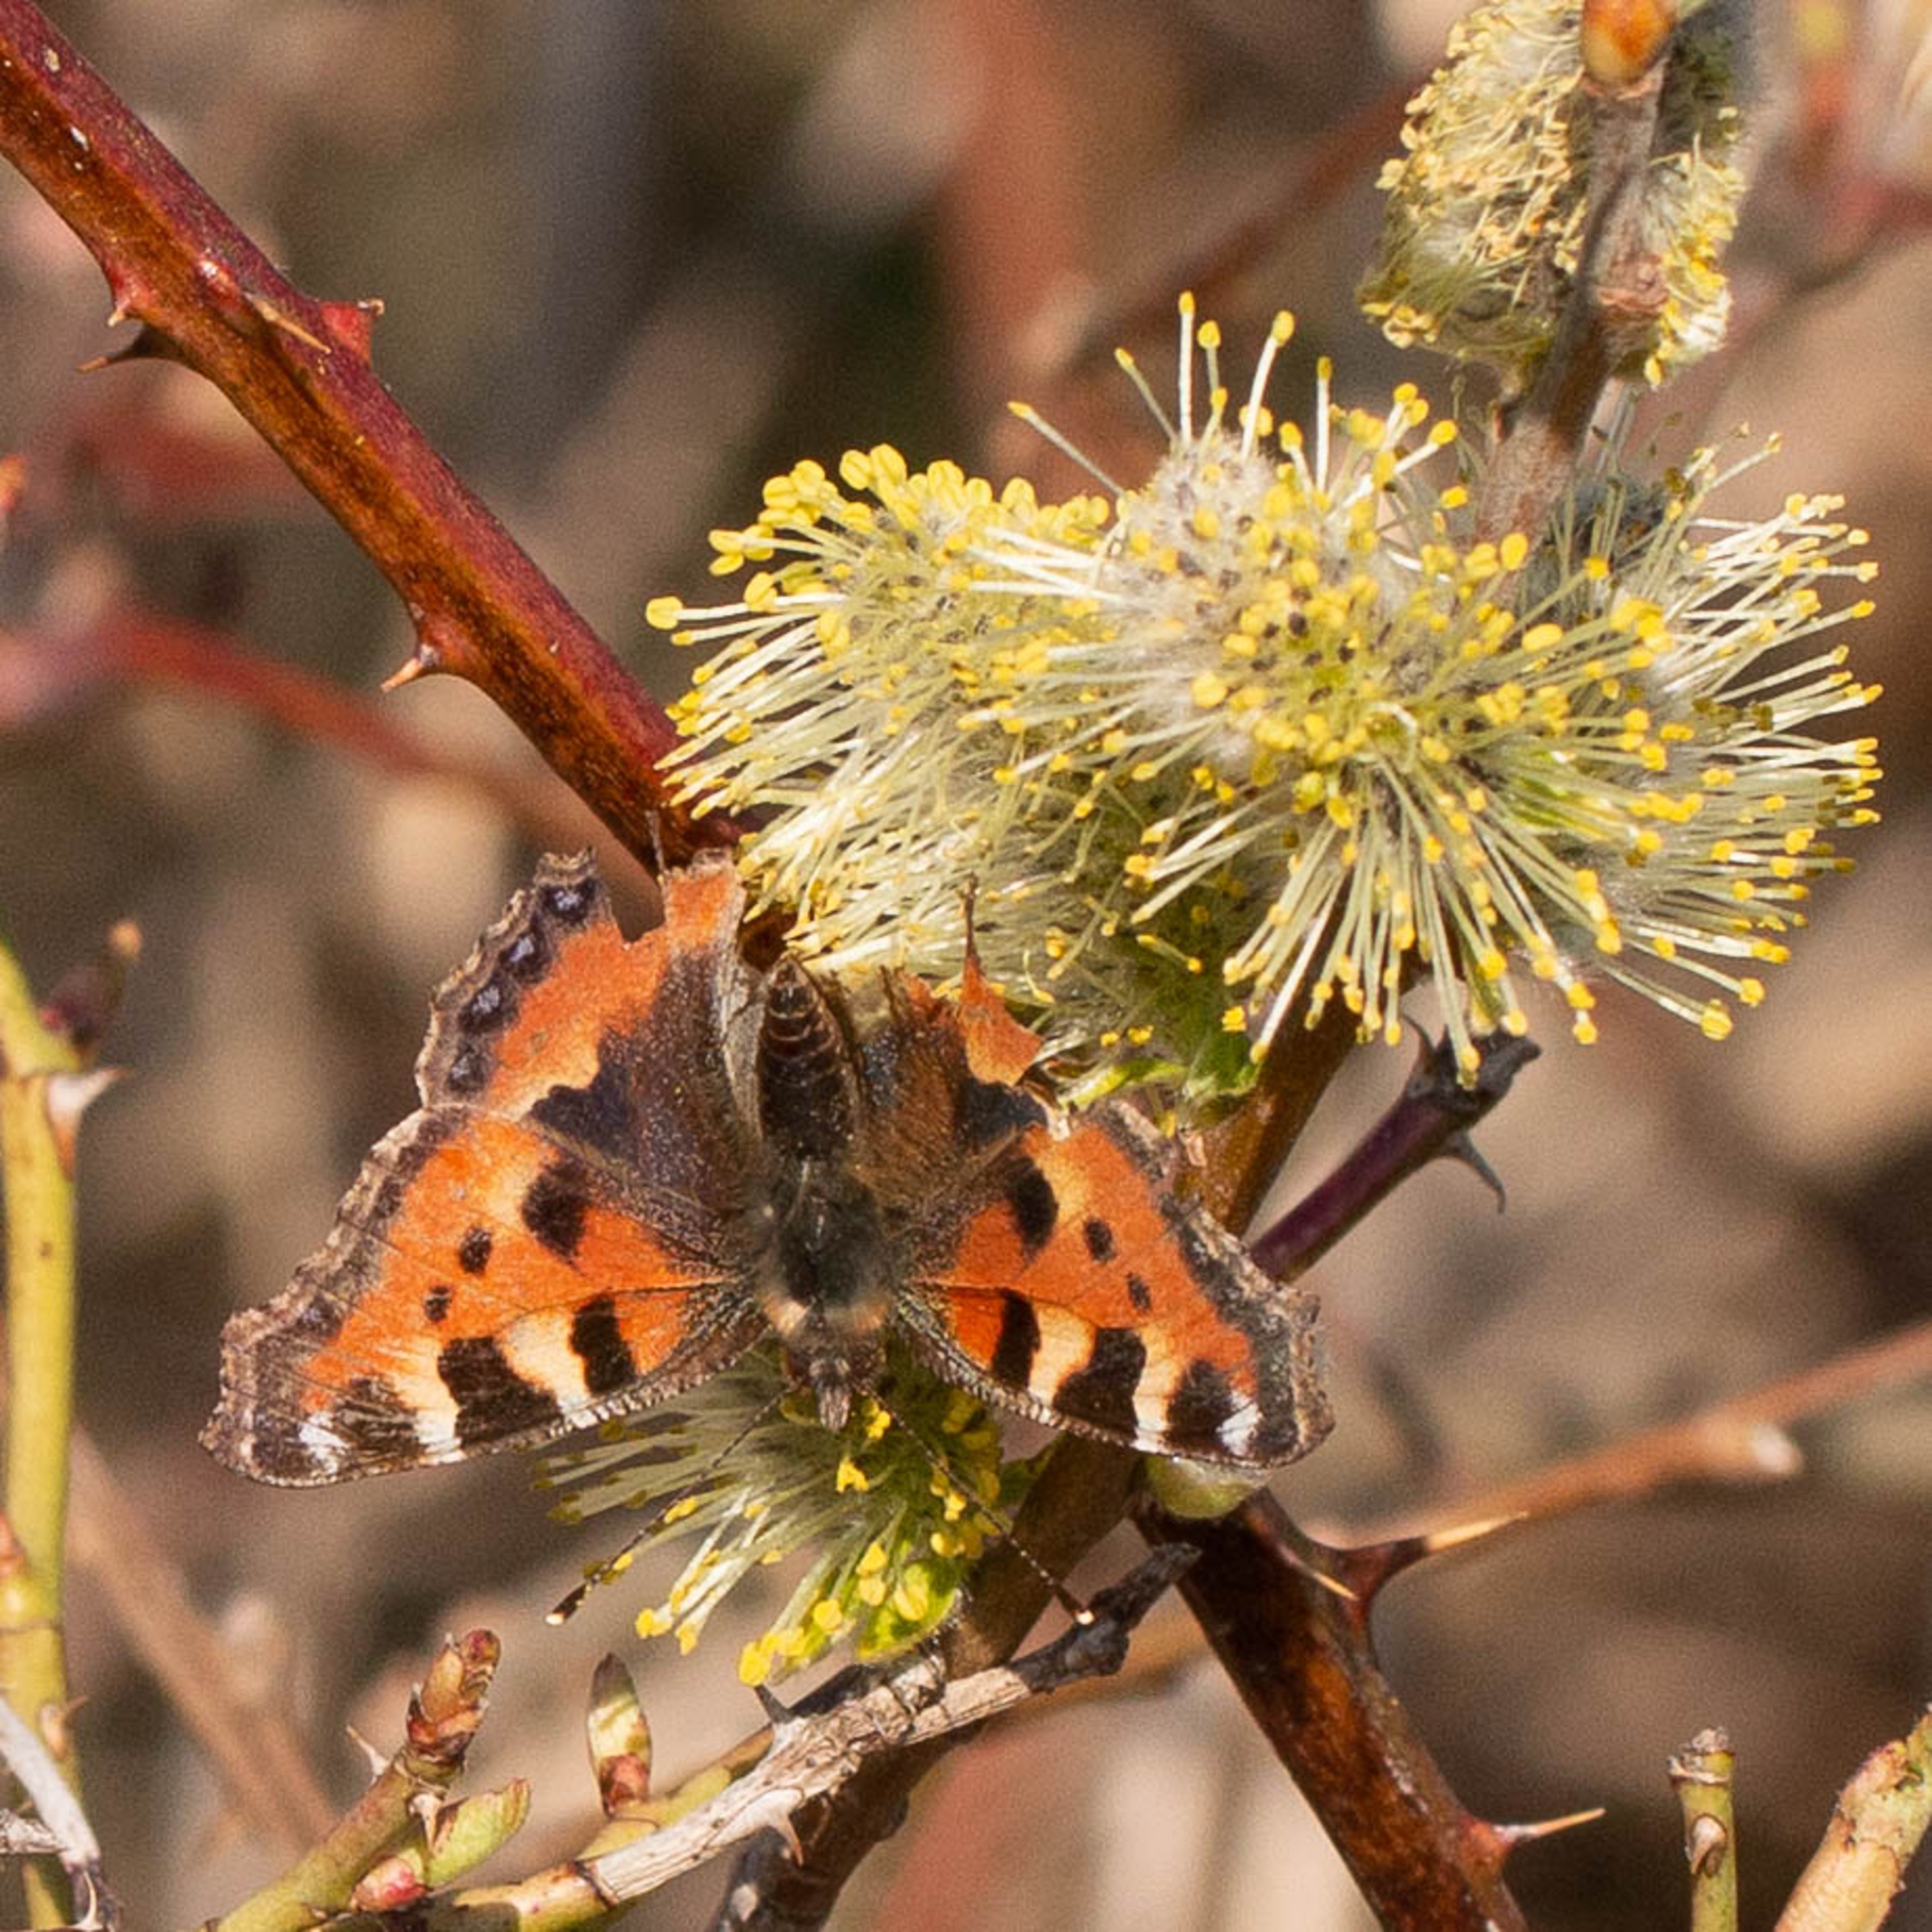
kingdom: Animalia
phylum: Arthropoda
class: Insecta
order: Lepidoptera
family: Nymphalidae
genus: Aglais
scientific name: Aglais urticae
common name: Nældens takvinge
